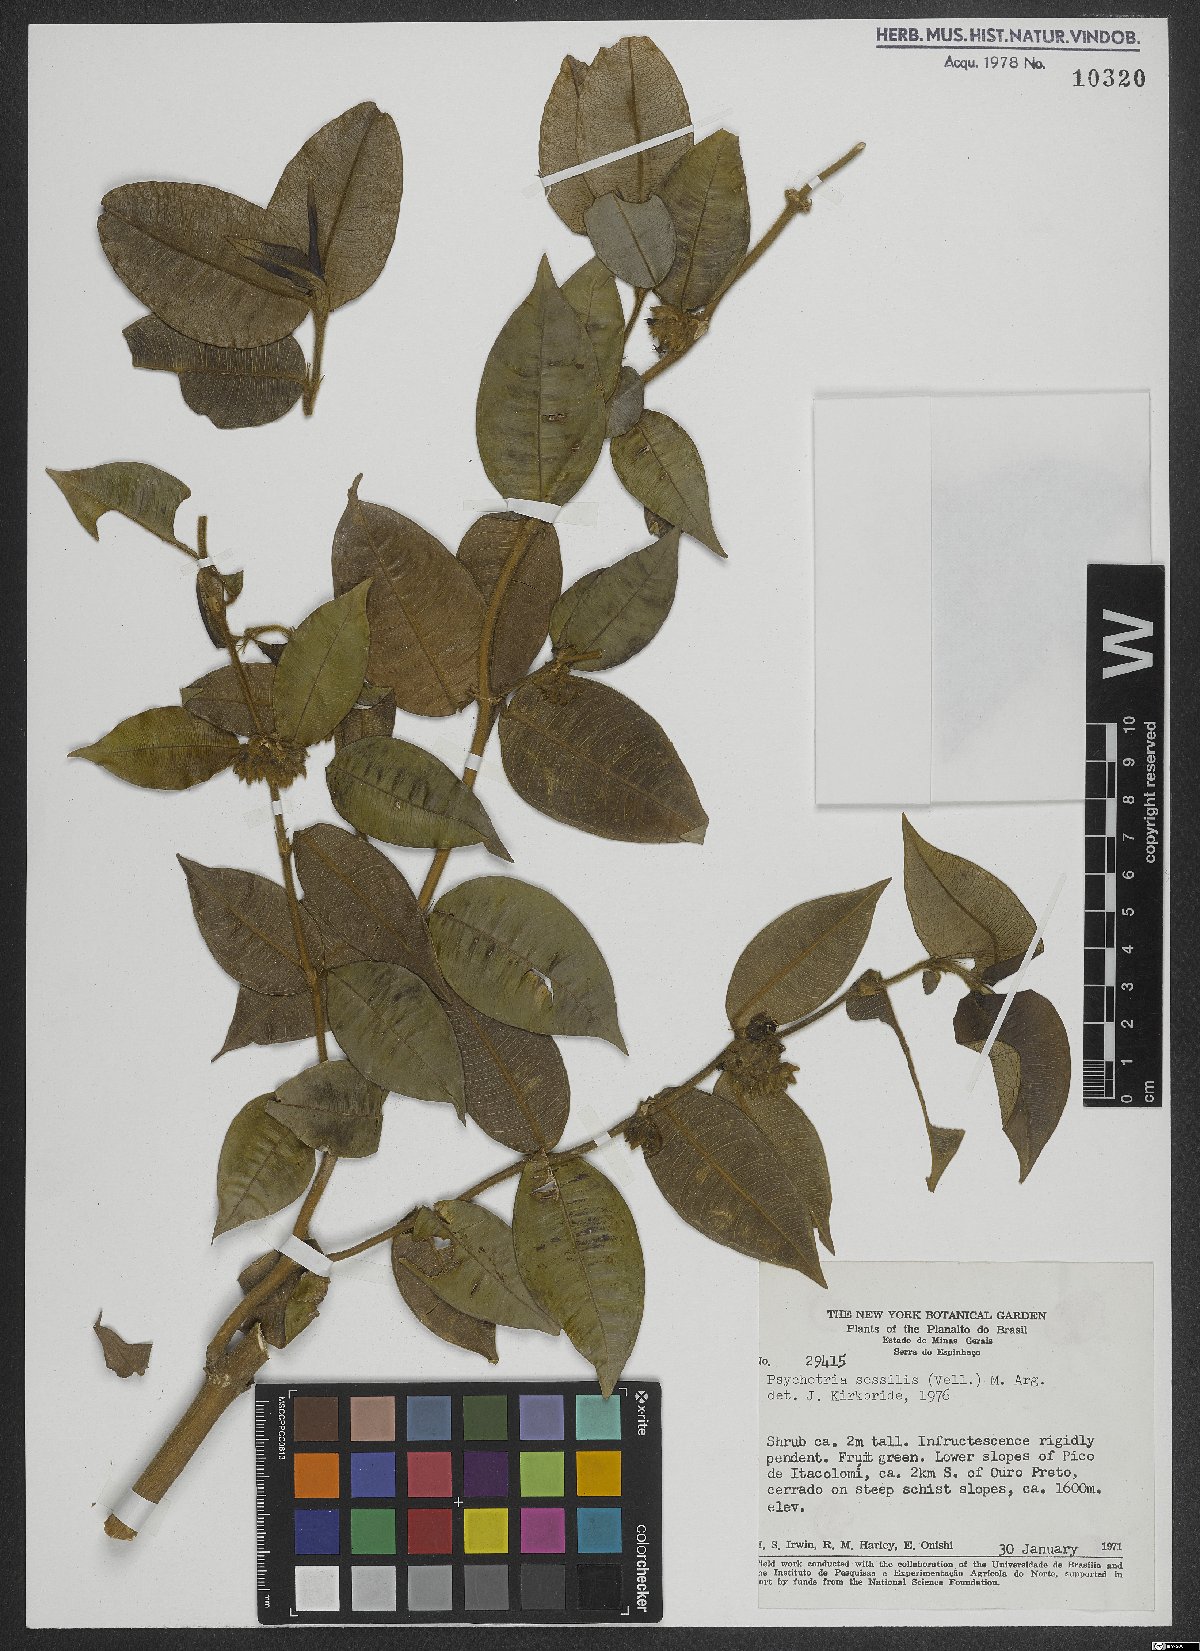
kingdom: Plantae
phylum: Tracheophyta
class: Magnoliopsida
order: Gentianales
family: Rubiaceae
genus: Rudgea
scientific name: Rudgea sessilis
